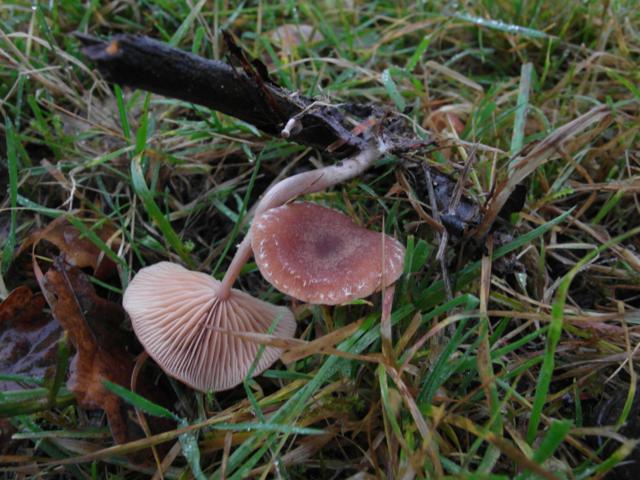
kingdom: Fungi
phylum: Basidiomycota
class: Agaricomycetes
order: Agaricales
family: Tubariaceae
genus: Tubaria
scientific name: Tubaria furfuracea
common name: kliddet fnughat
